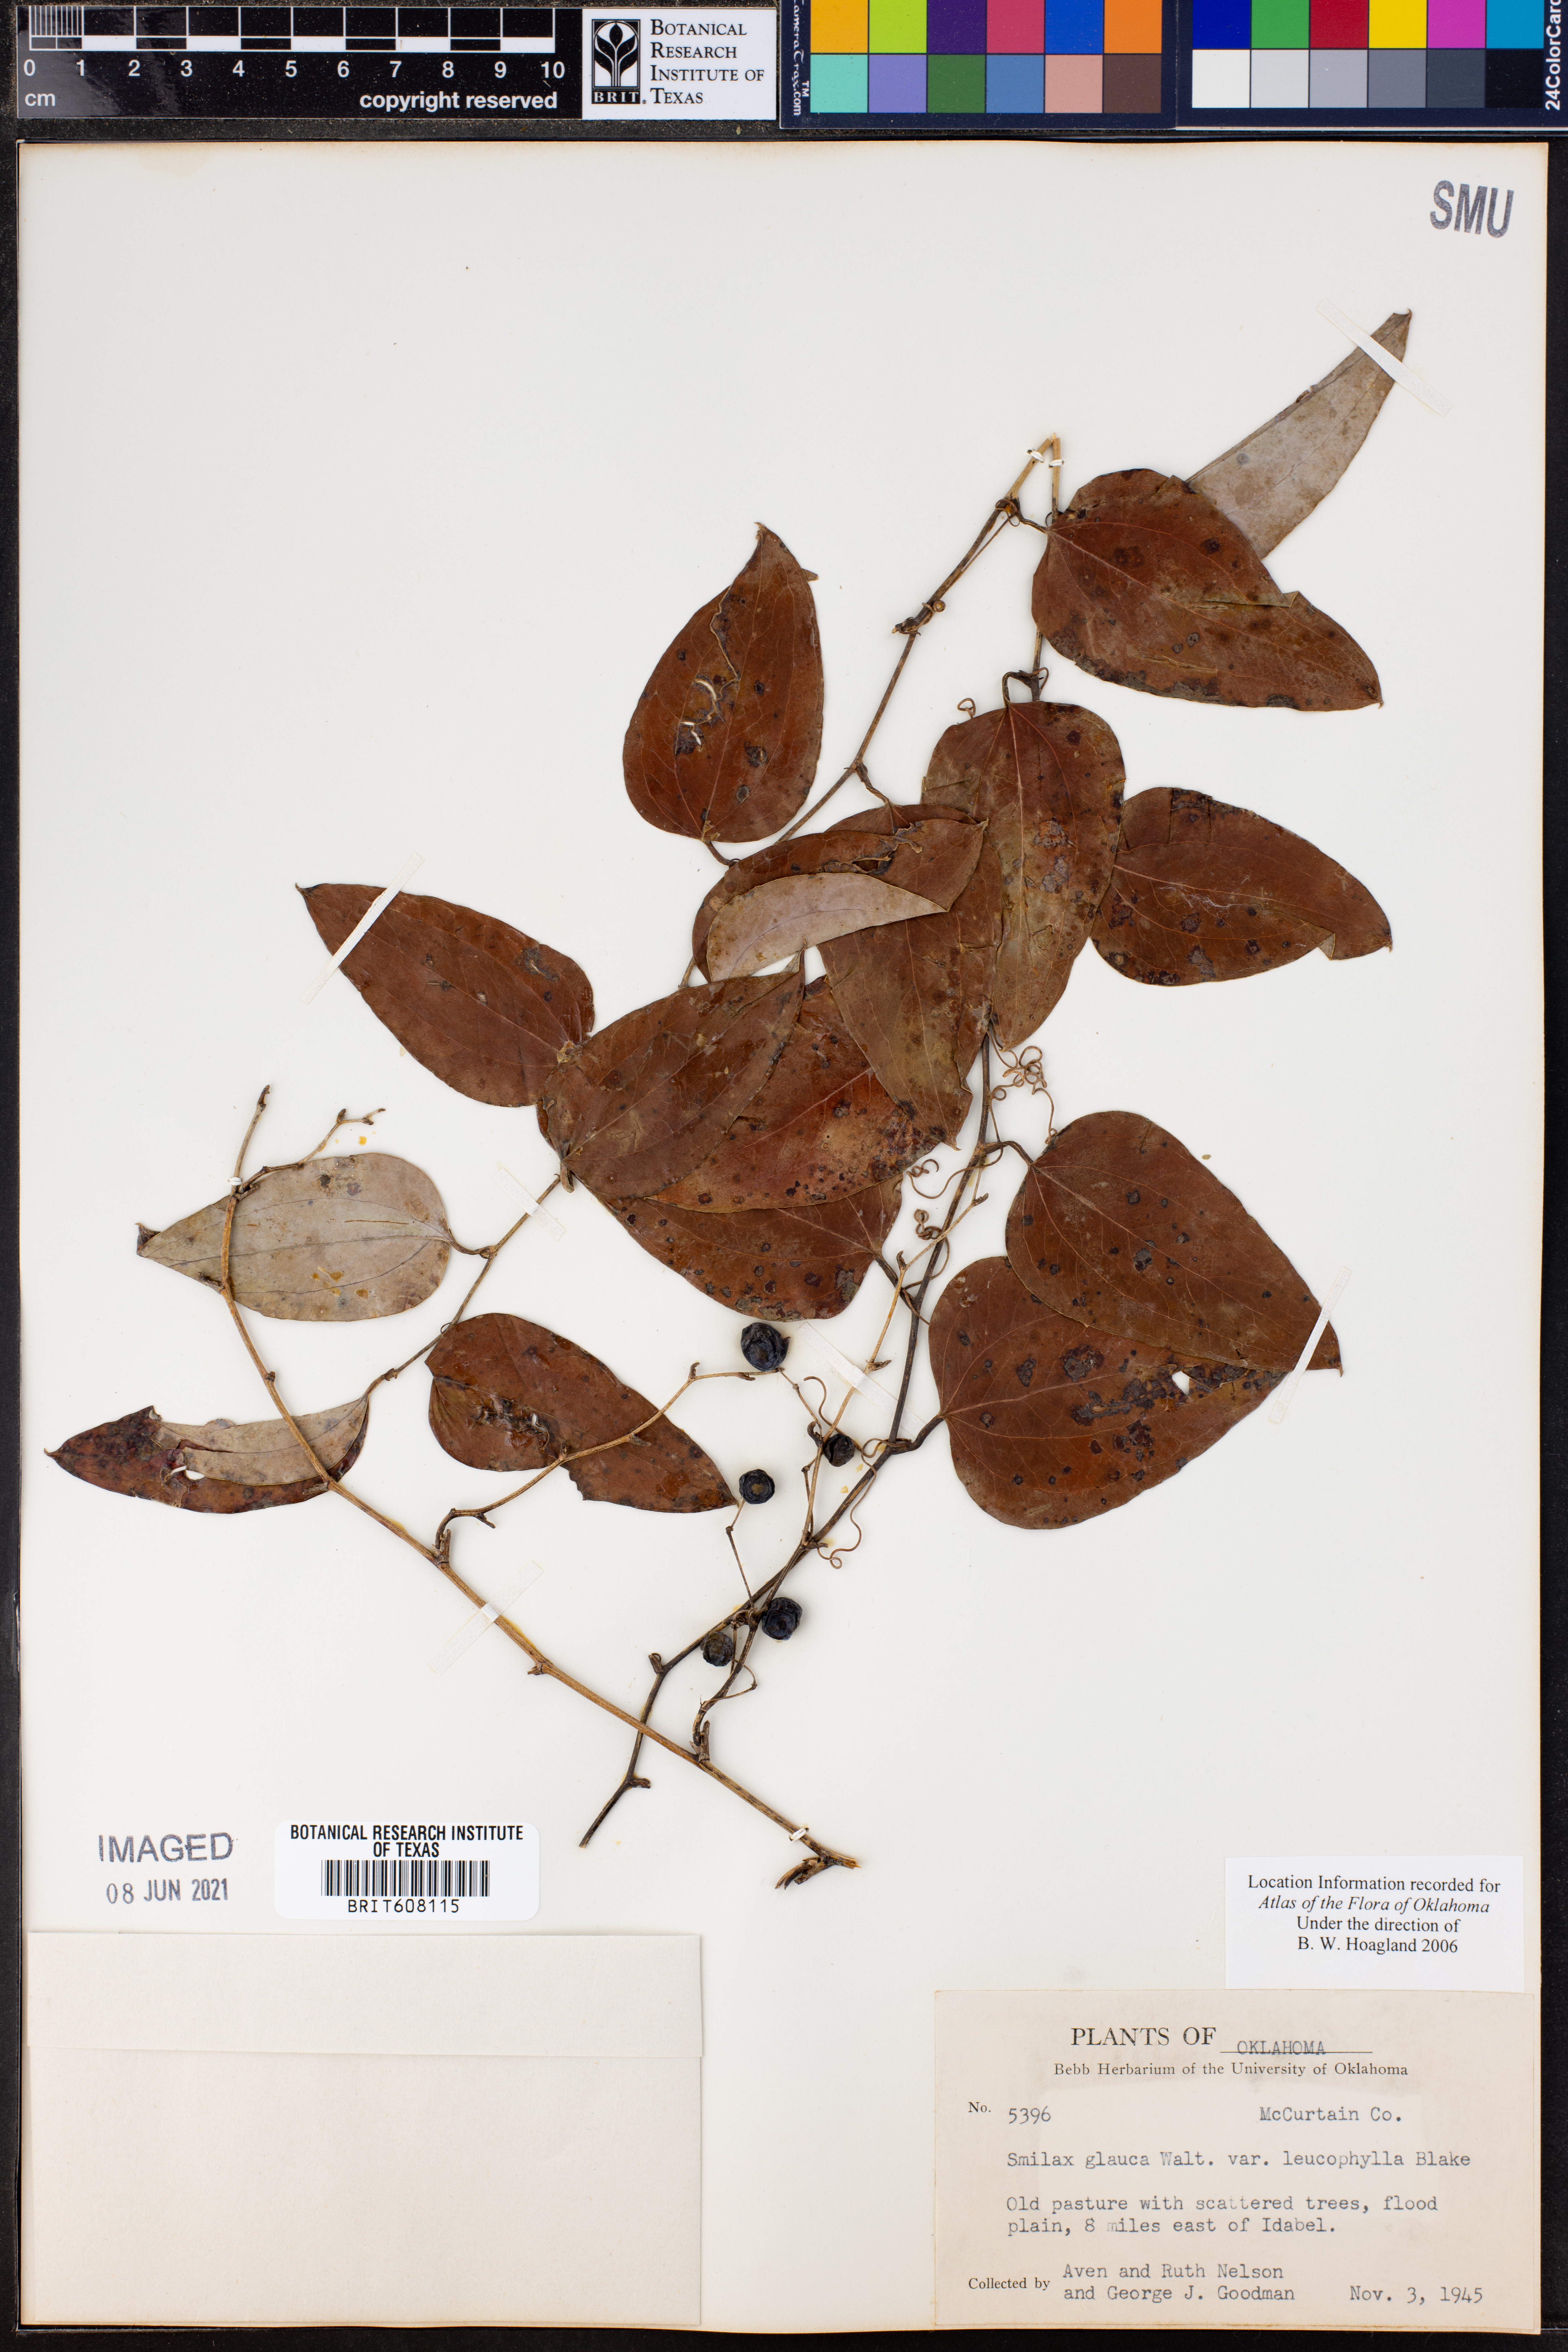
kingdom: Plantae
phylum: Tracheophyta
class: Liliopsida
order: Liliales
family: Smilacaceae
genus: Smilax
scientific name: Smilax glauca
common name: Cat greenbrier
